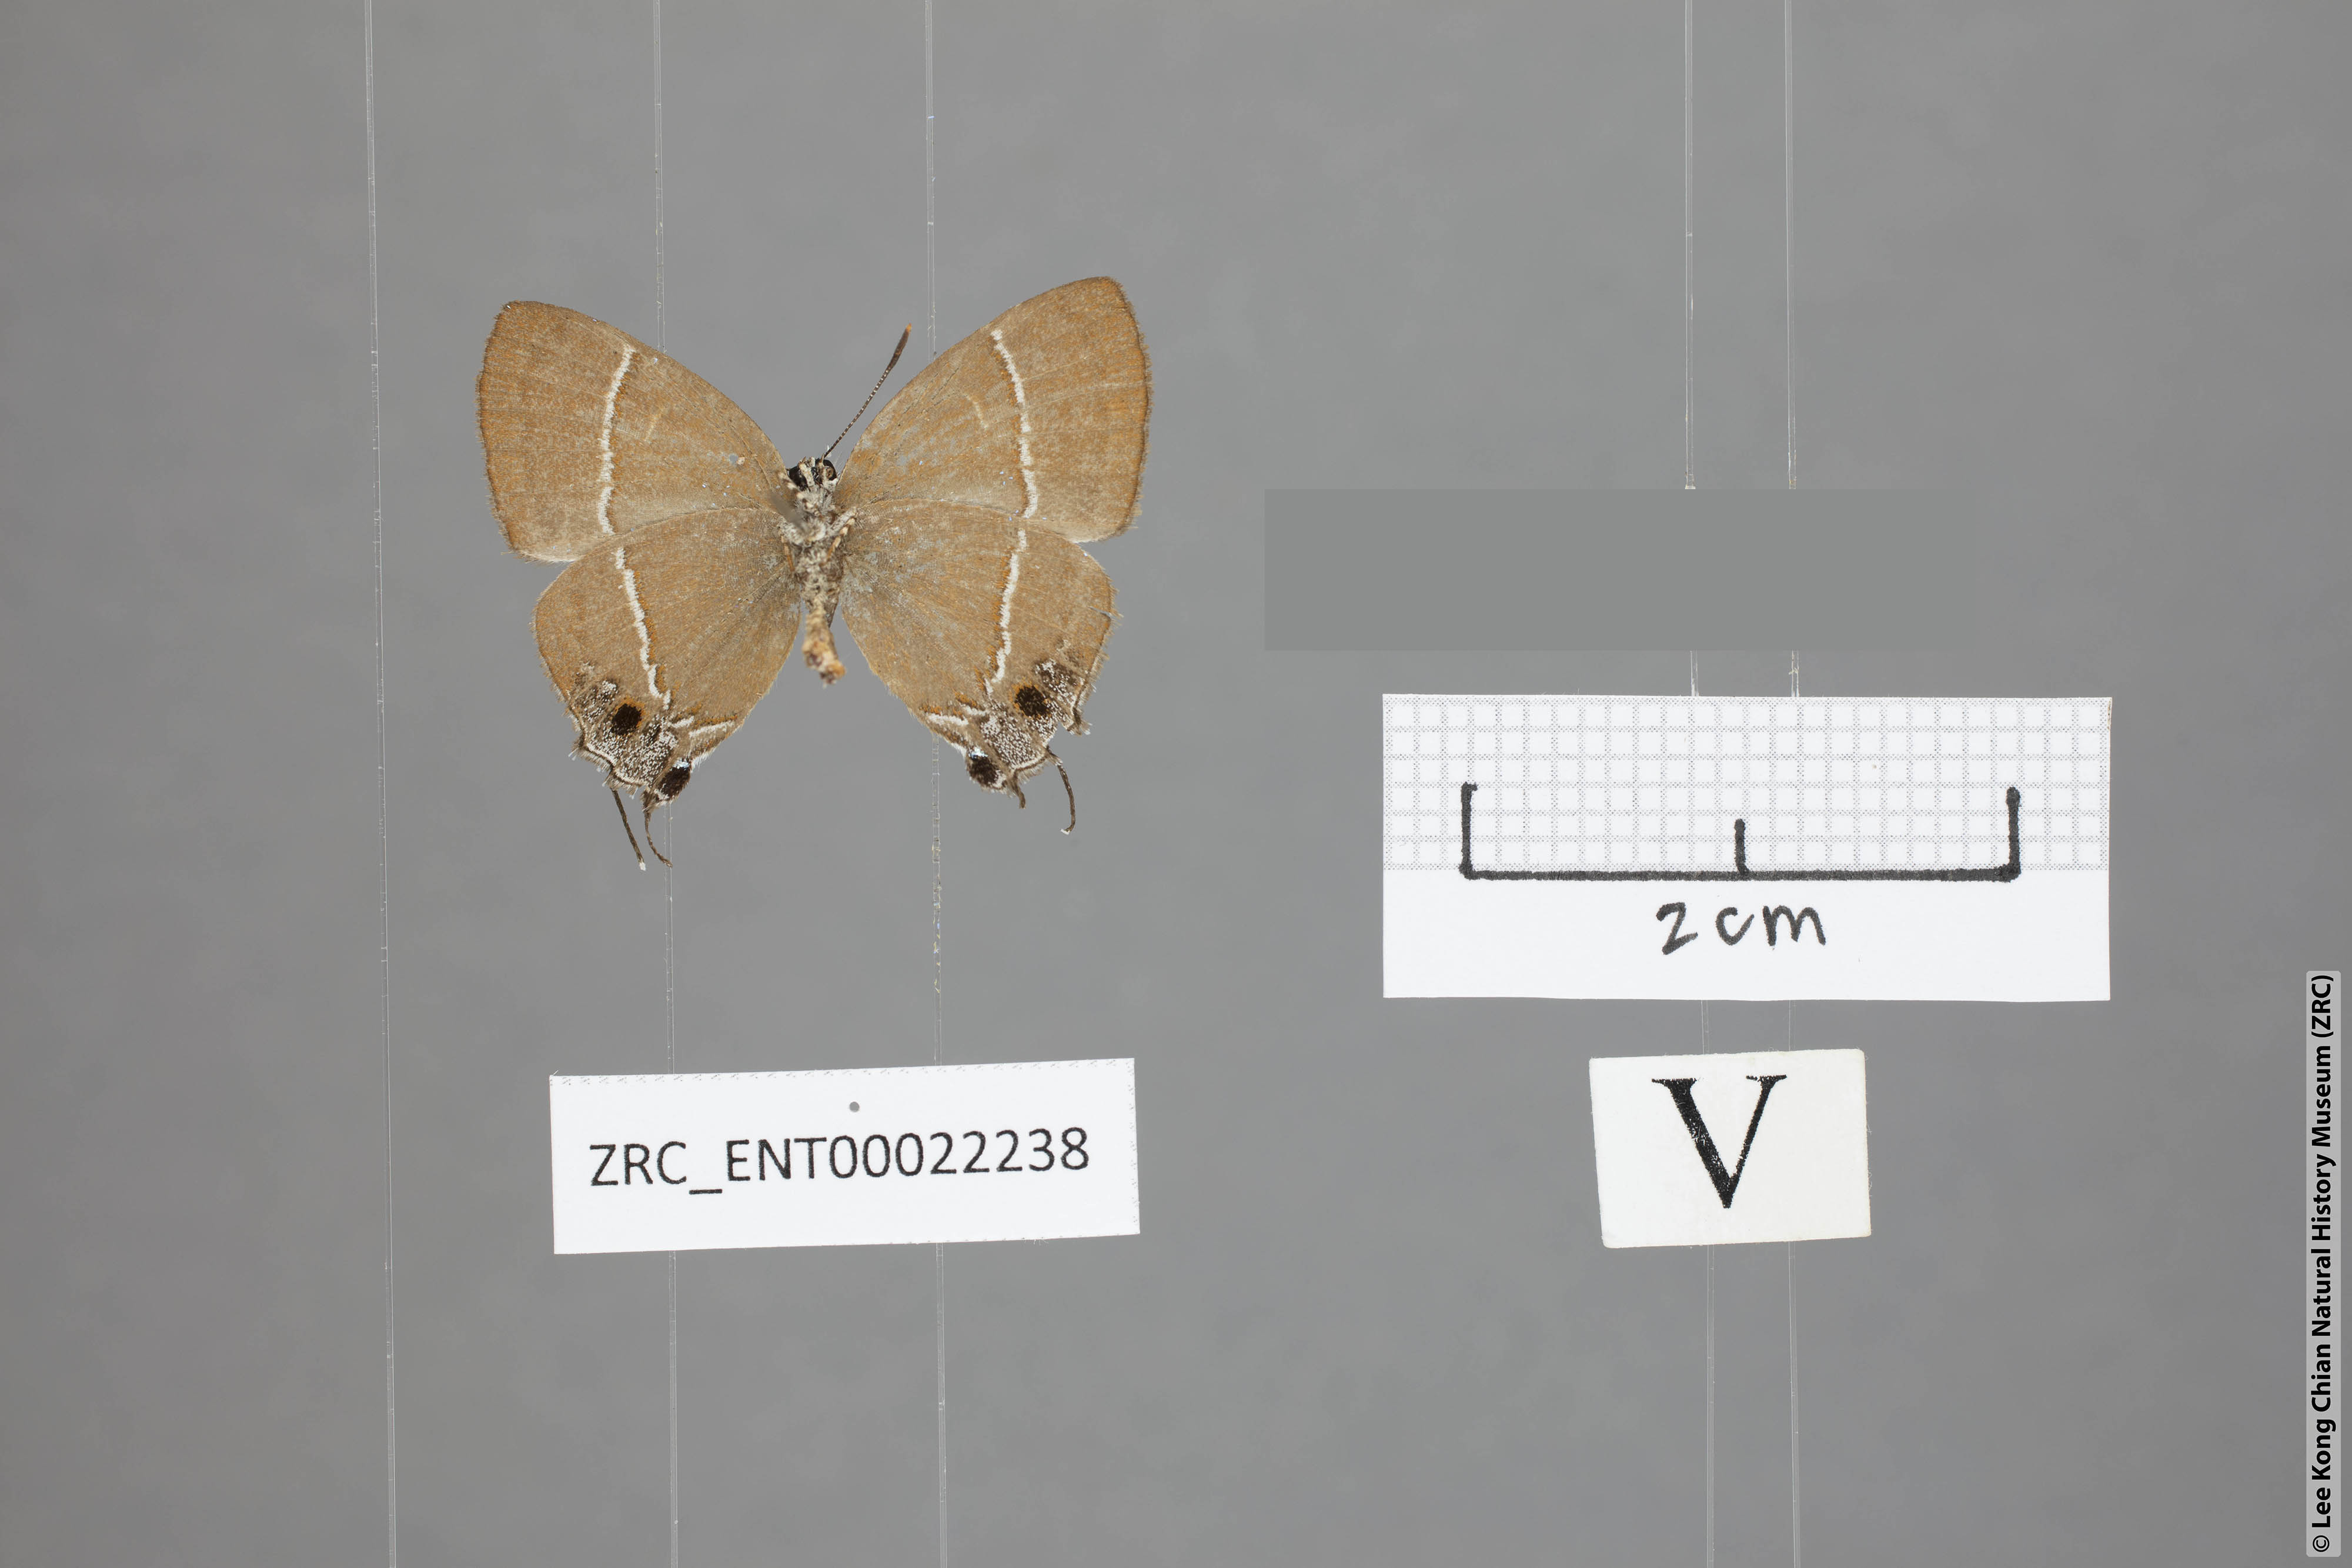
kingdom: Animalia
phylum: Arthropoda
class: Insecta
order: Lepidoptera
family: Lycaenidae
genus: Tajuria
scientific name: Tajuria yajna
